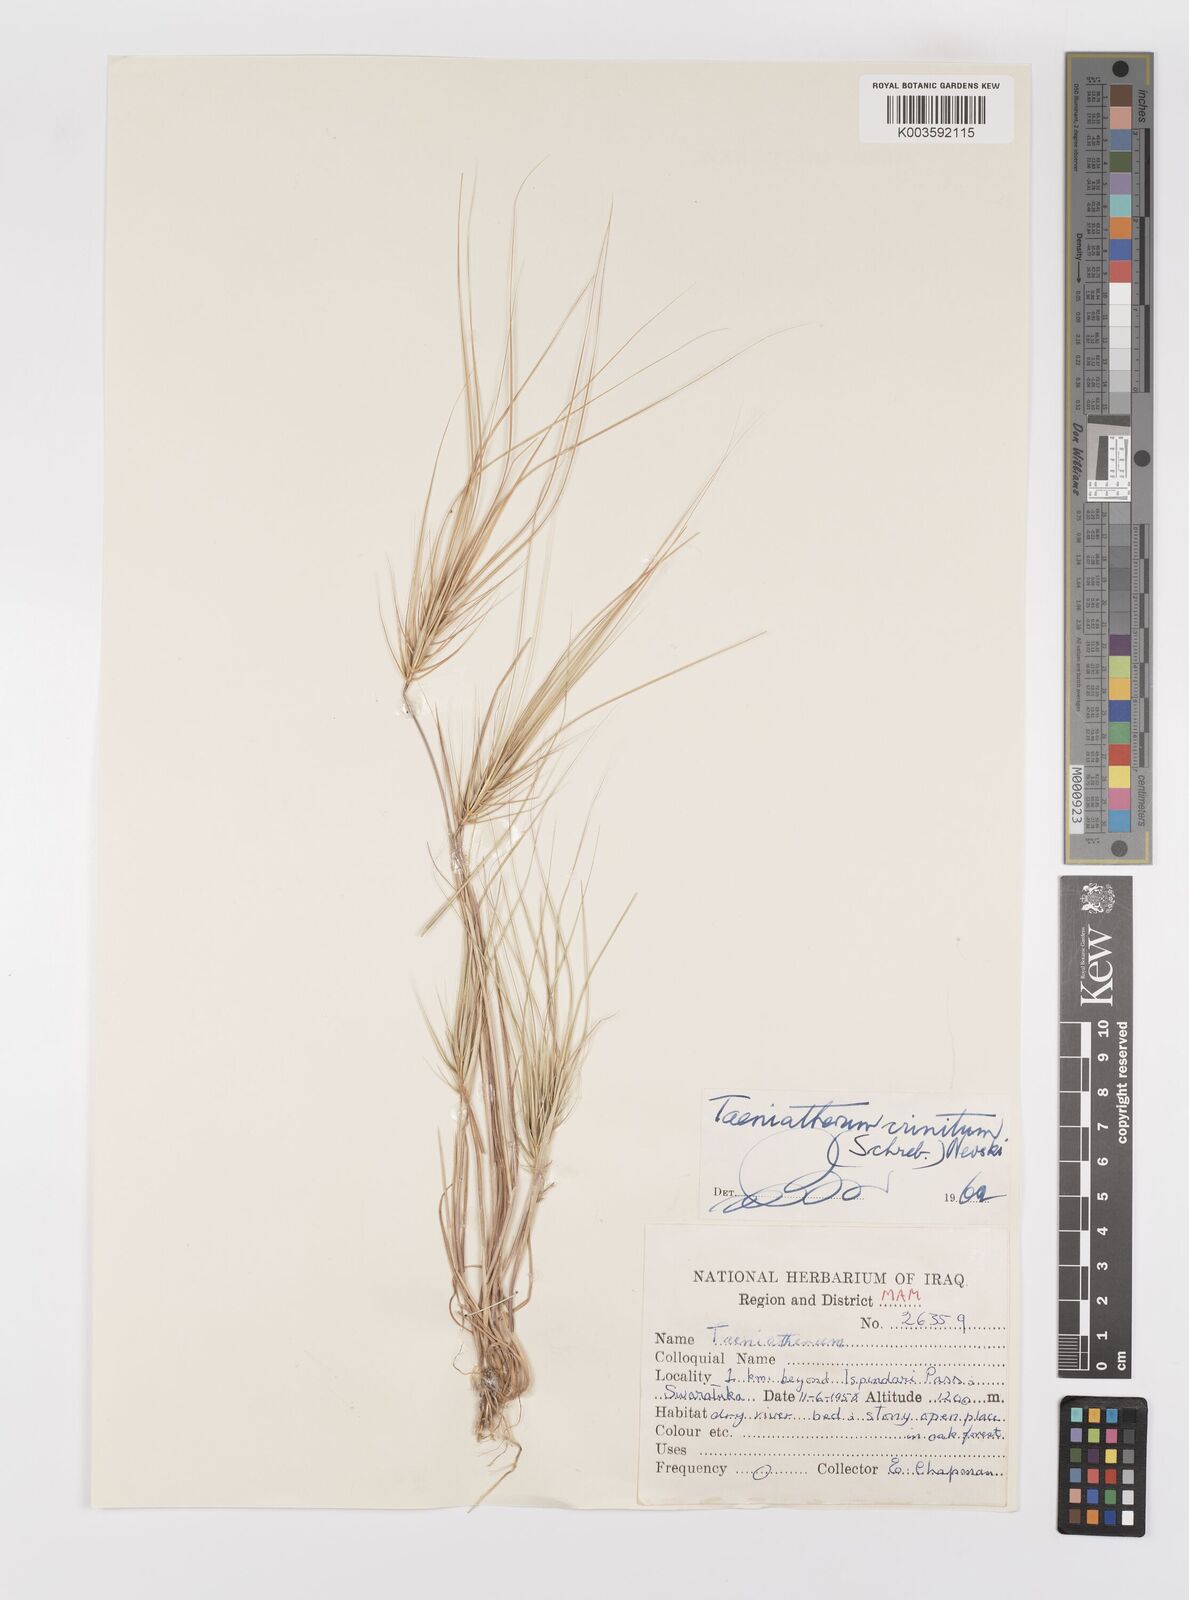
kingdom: Plantae
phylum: Tracheophyta
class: Liliopsida
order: Poales
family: Poaceae
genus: Taeniatherum
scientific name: Taeniatherum caput-medusae
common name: Medusahead
